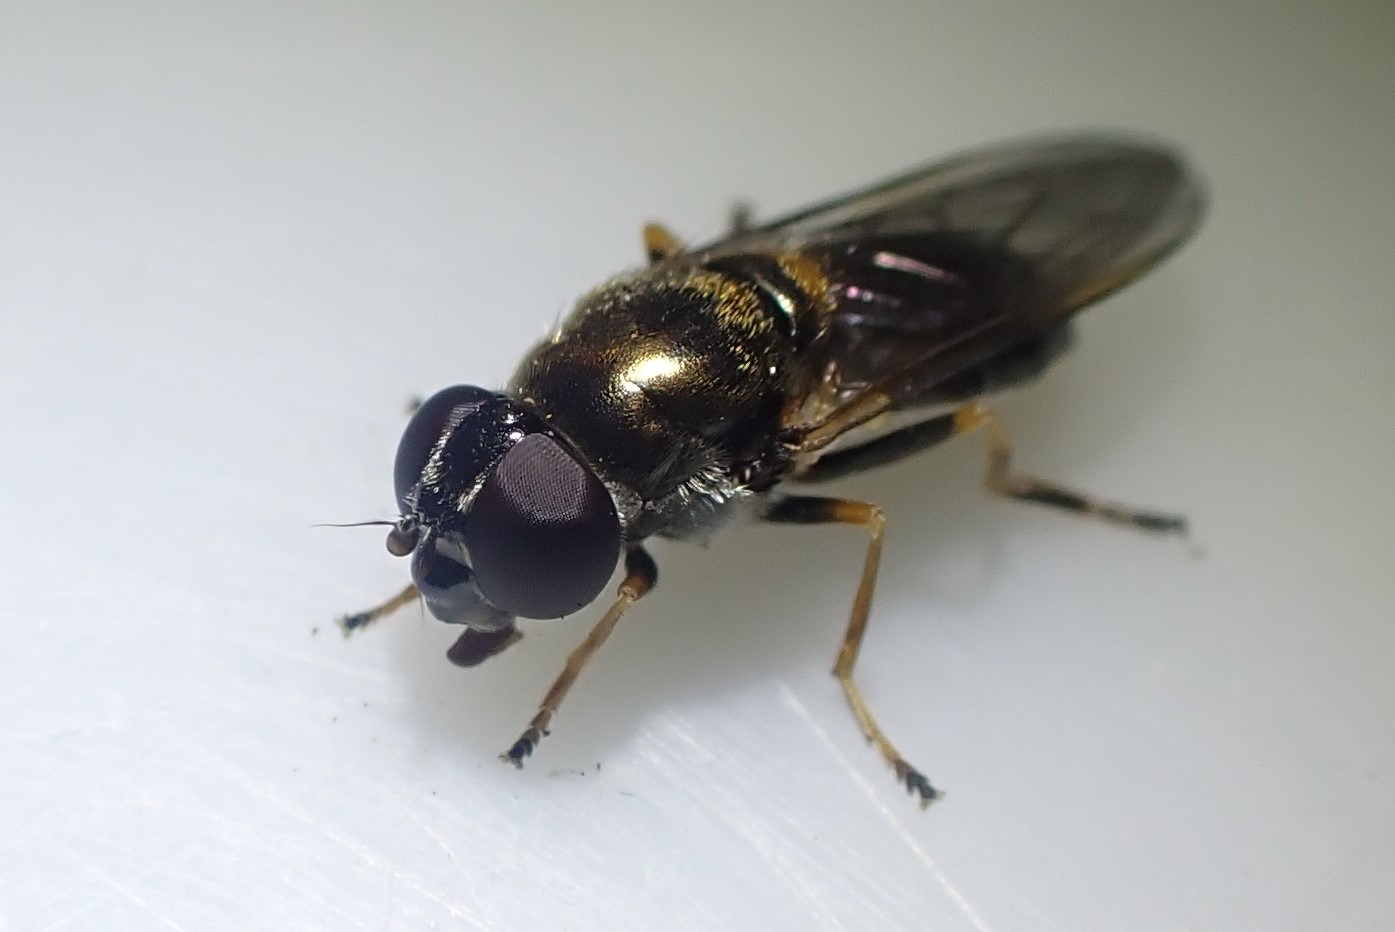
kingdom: Animalia
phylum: Arthropoda
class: Insecta
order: Diptera
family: Syrphidae
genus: Cheilosia
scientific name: Cheilosia scutellata
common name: Rørhat-urtesvirreflue
